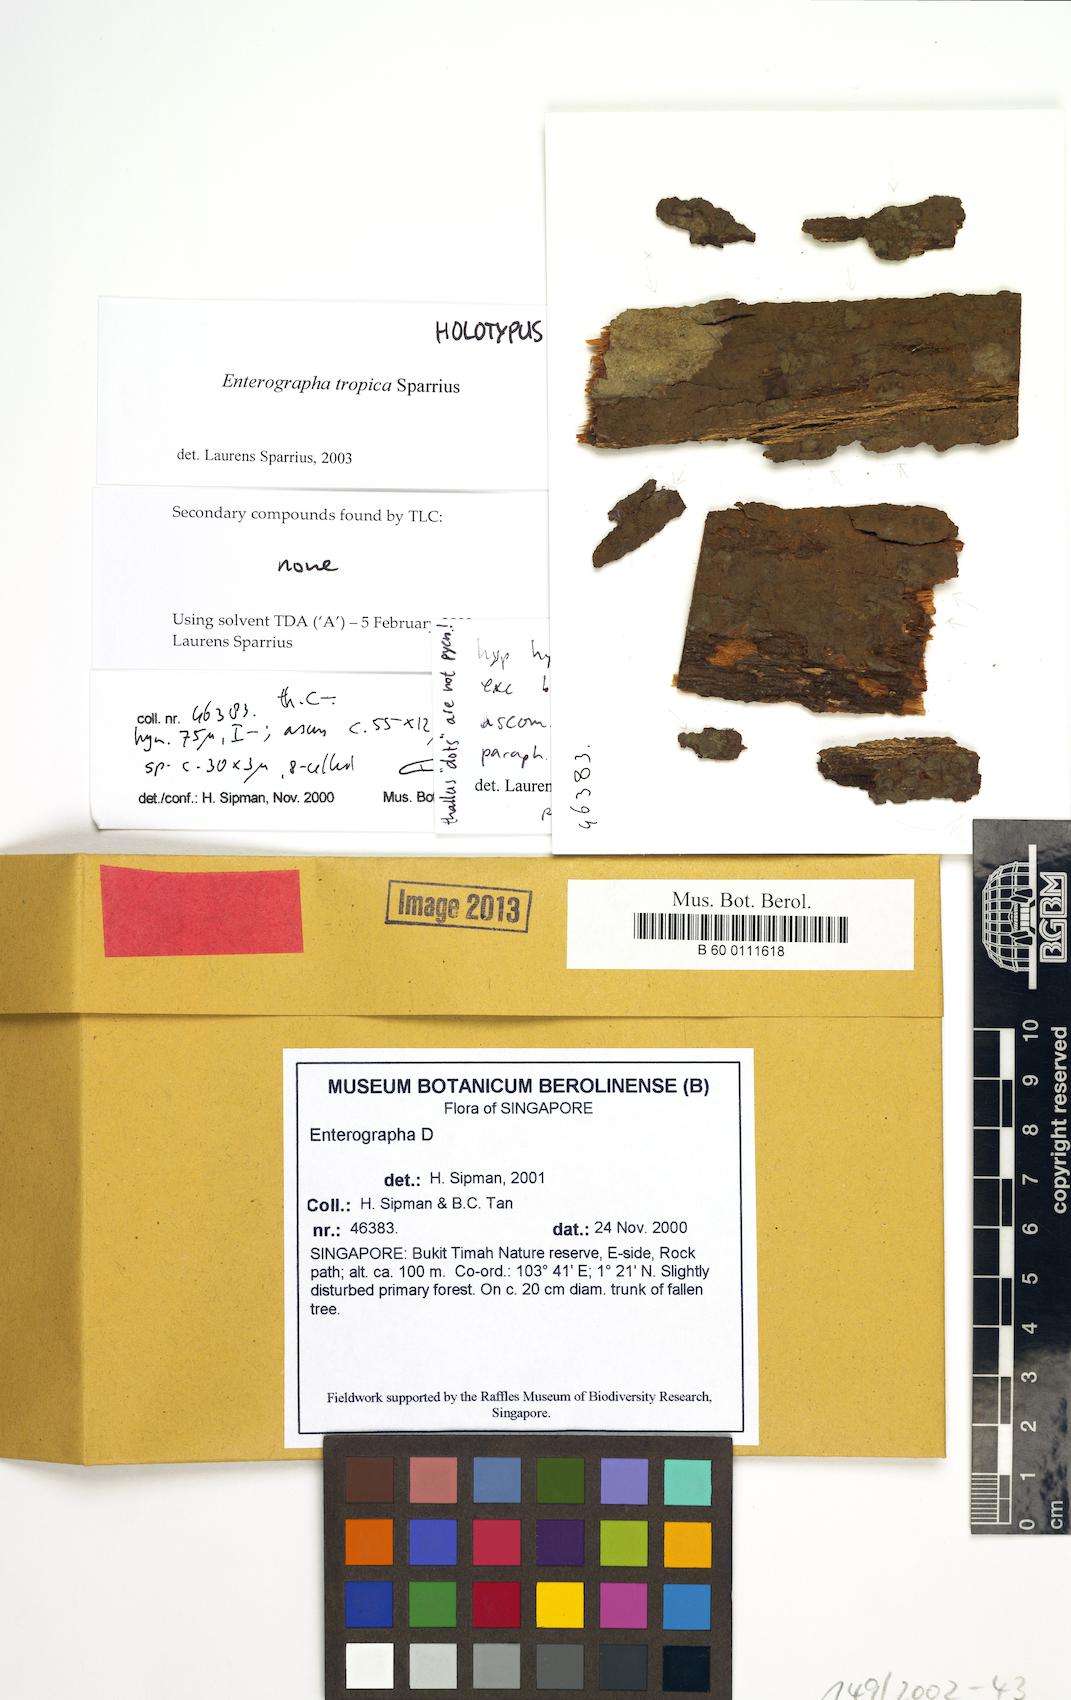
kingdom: Fungi
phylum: Ascomycota
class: Arthoniomycetes
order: Arthoniales
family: Roccellaceae
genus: Enterographa
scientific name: Enterographa tropica
